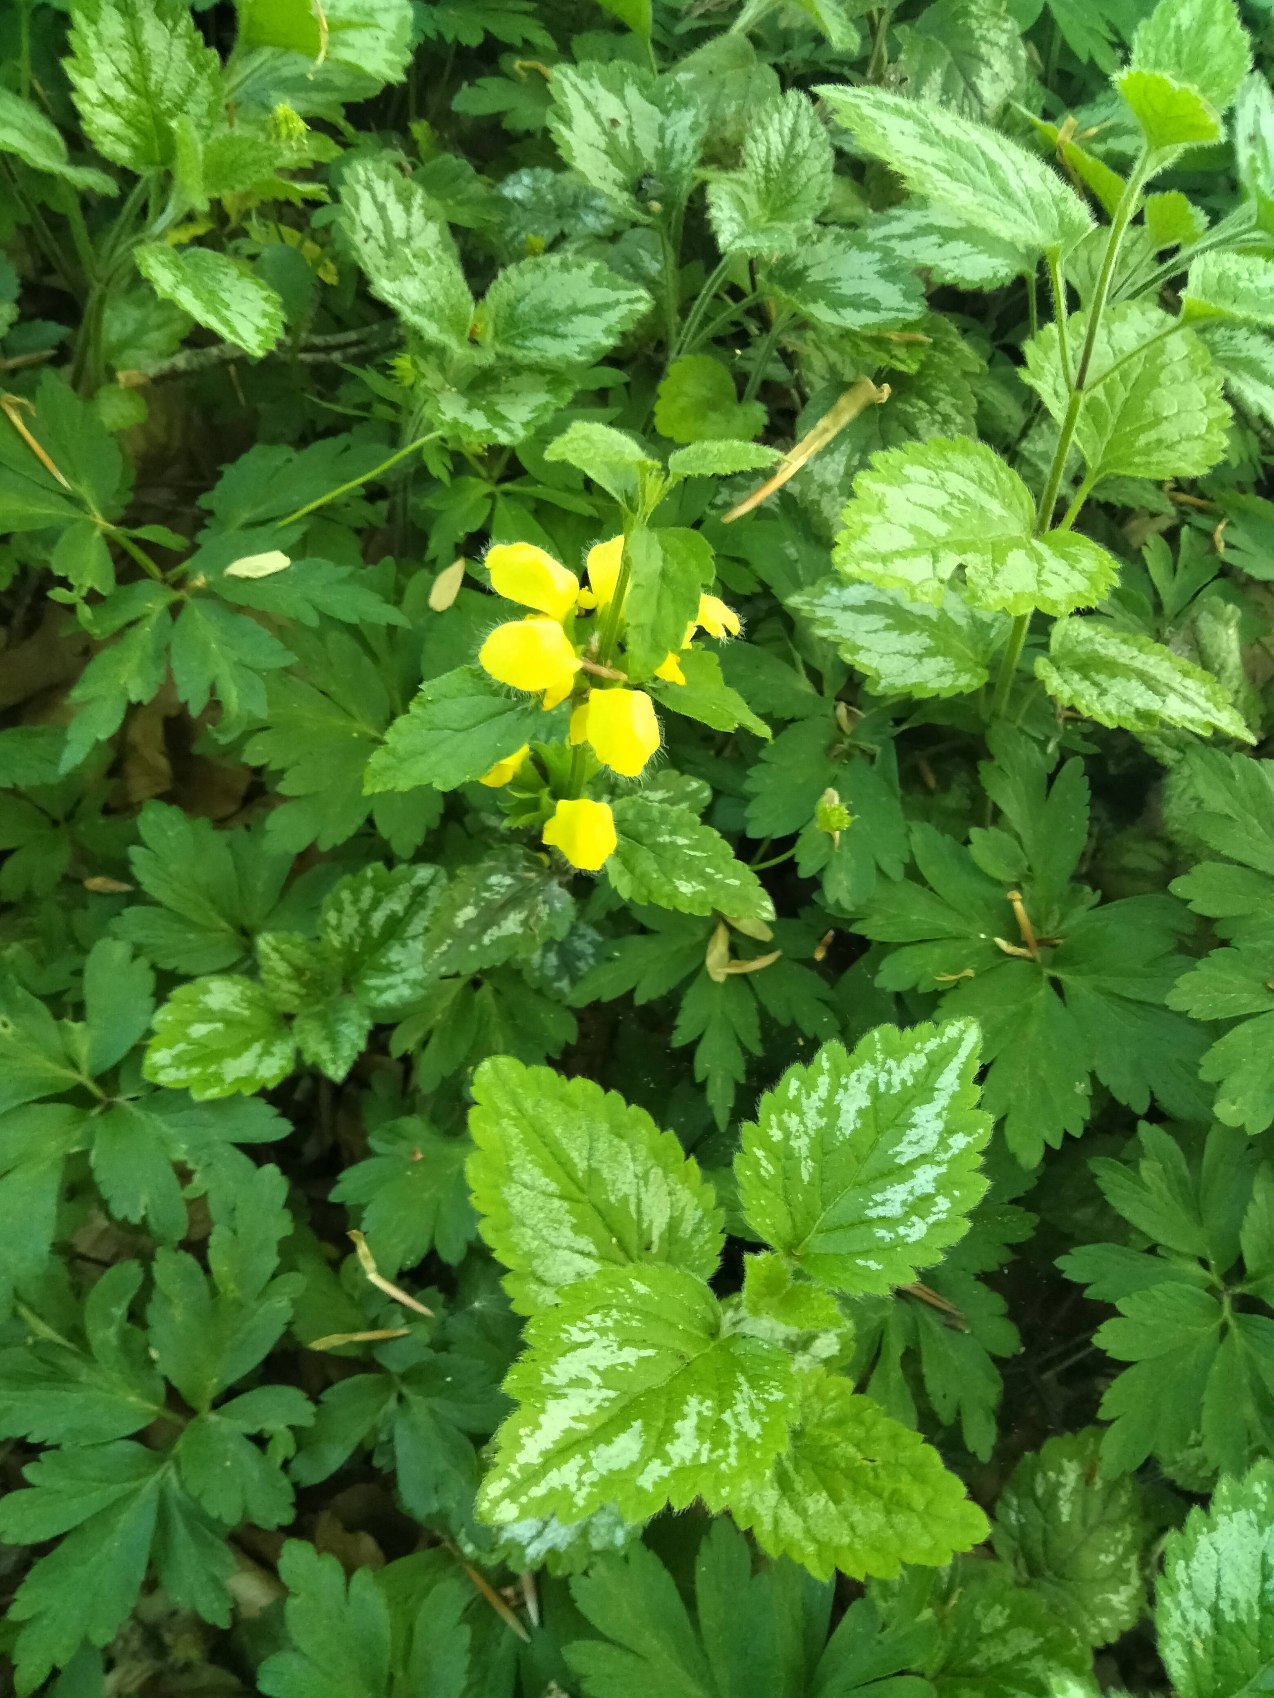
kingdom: Plantae
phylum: Tracheophyta
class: Magnoliopsida
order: Lamiales
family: Lamiaceae
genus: Lamium
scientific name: Lamium galeobdolon
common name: Have-guldnælde
